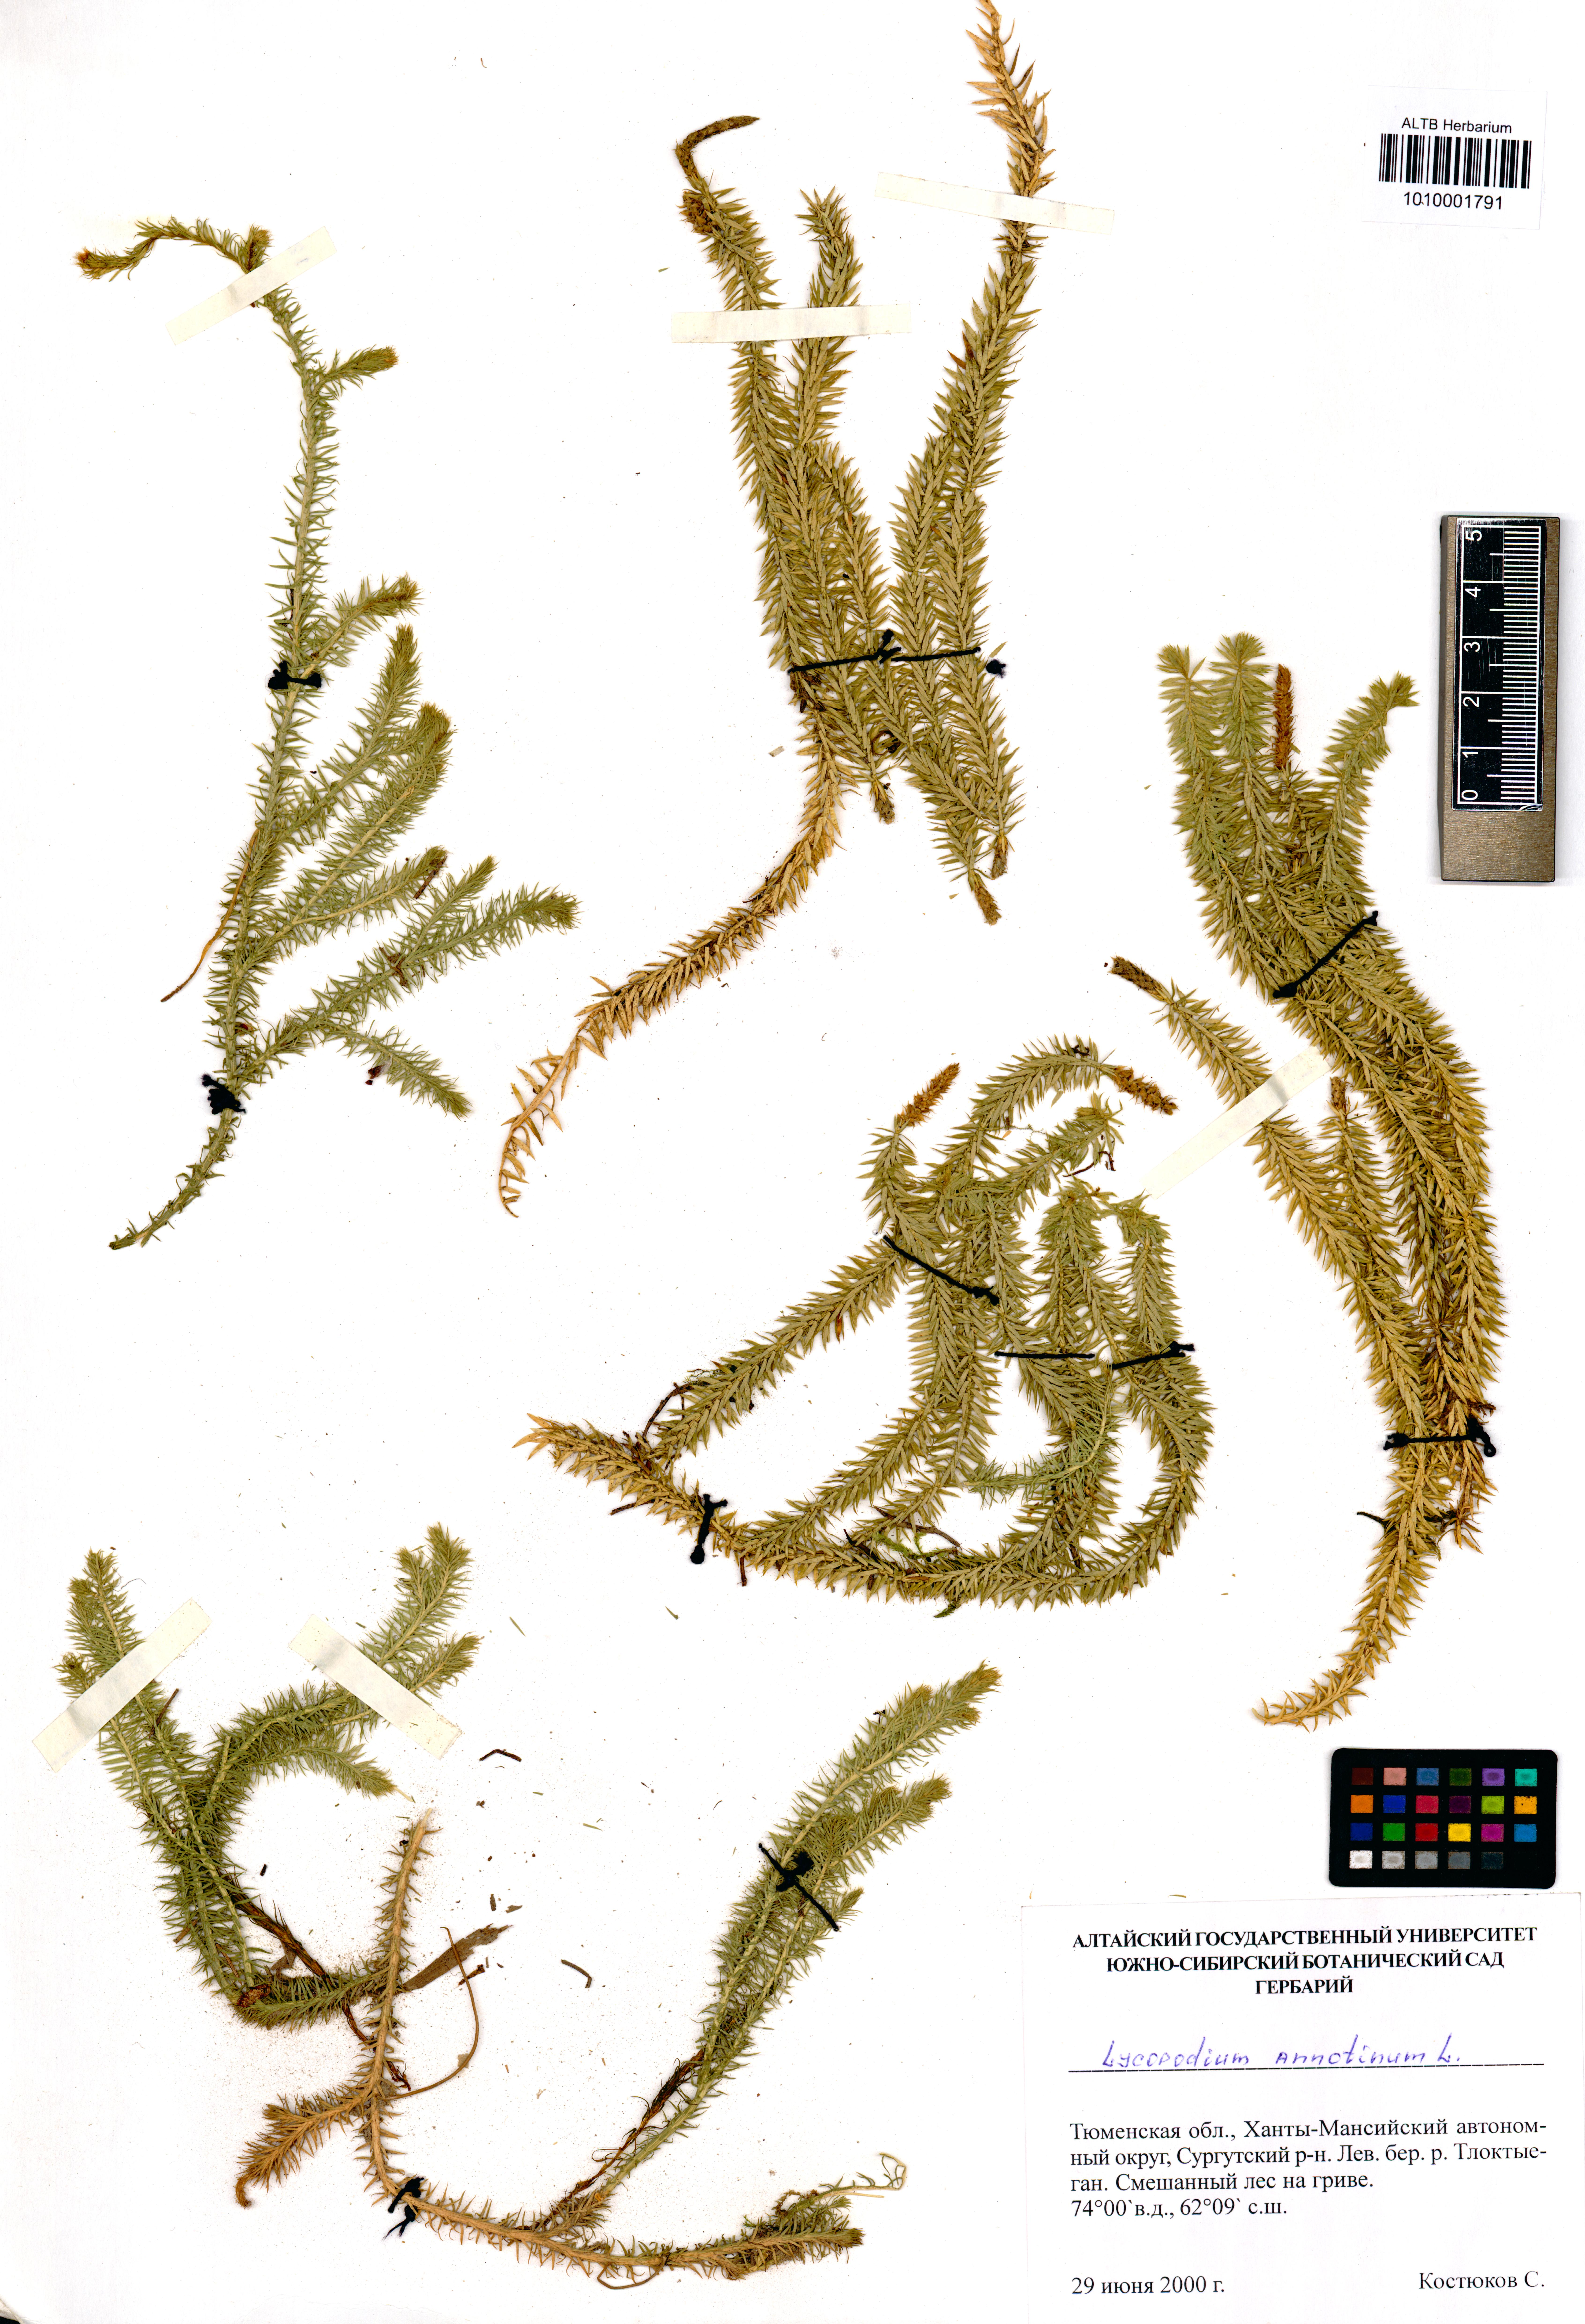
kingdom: Plantae
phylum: Tracheophyta
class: Lycopodiopsida
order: Lycopodiales
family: Lycopodiaceae
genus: Spinulum
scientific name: Spinulum annotinum
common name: Interrupted club-moss
